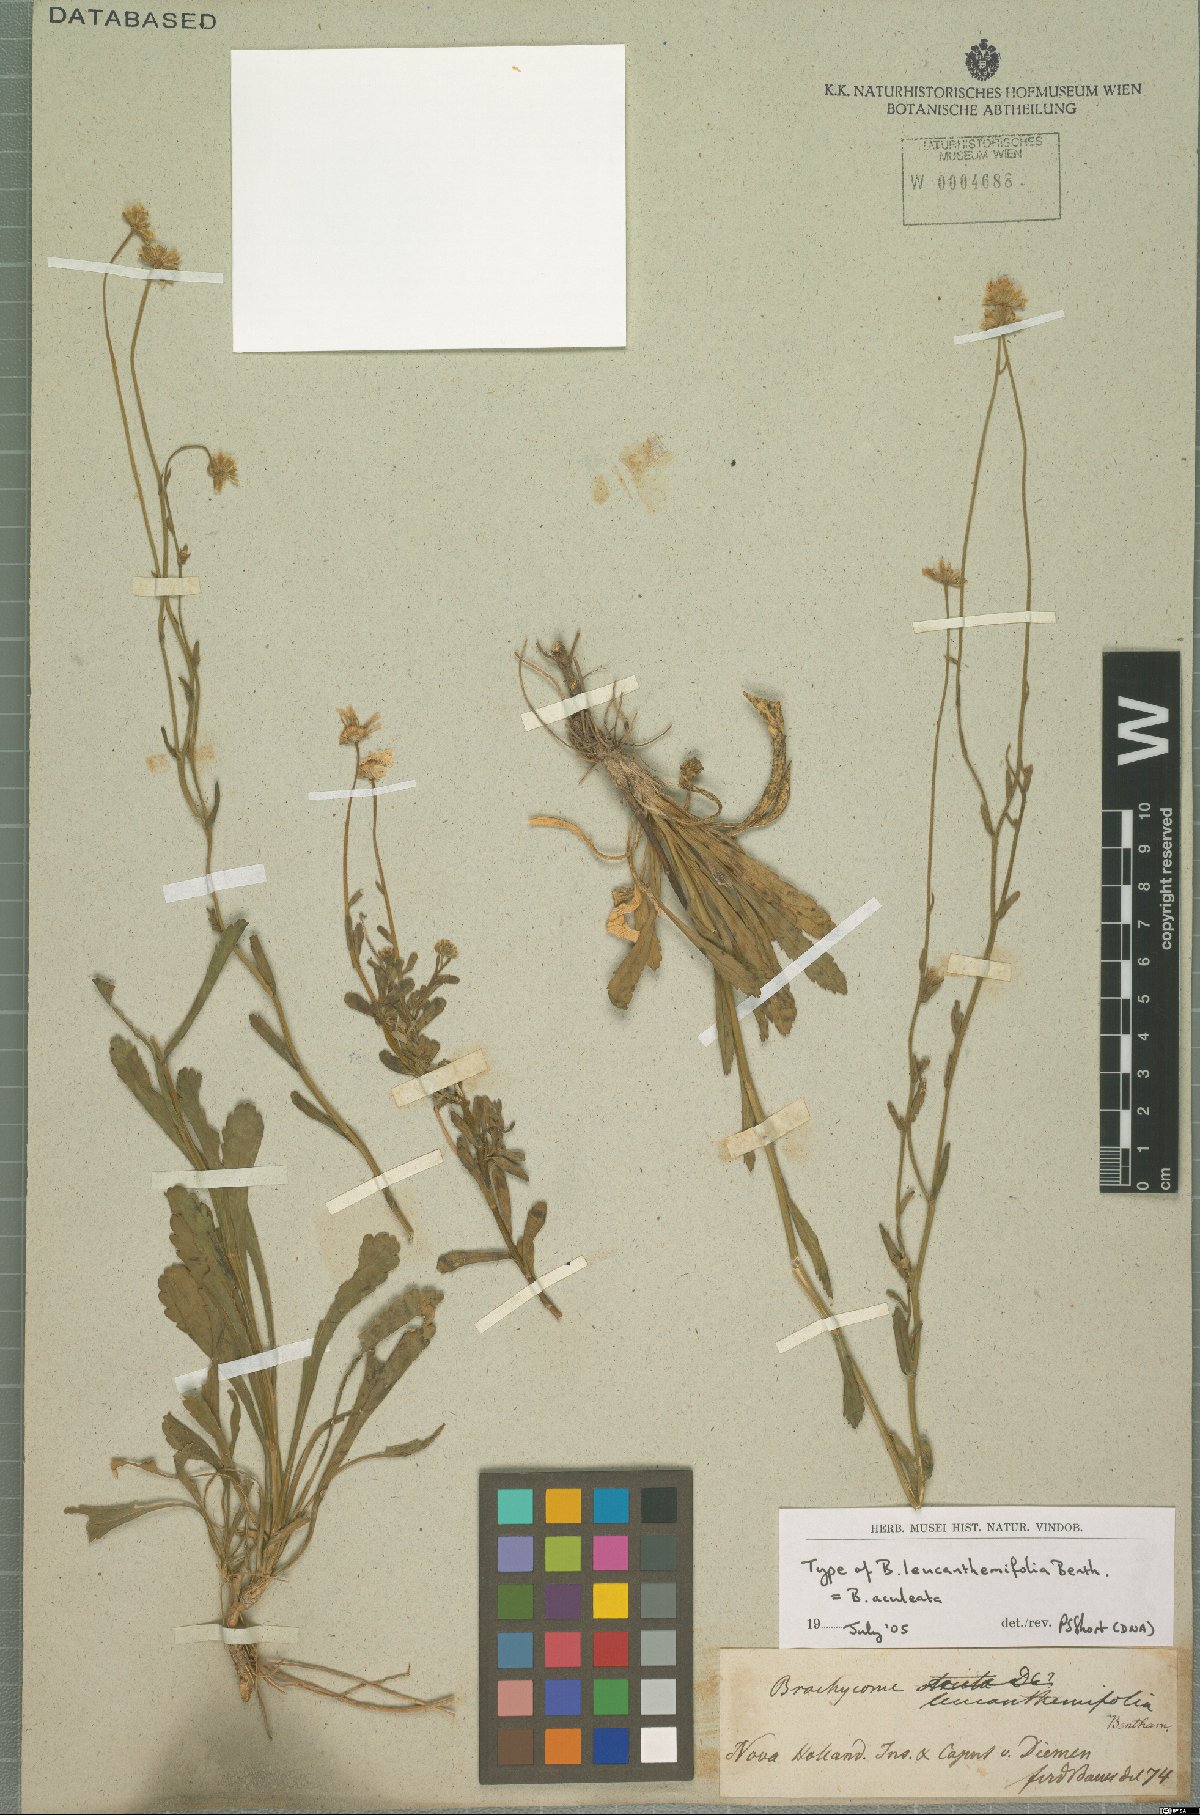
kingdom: Plantae
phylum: Tracheophyta
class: Magnoliopsida
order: Asterales
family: Asteraceae
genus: Brachyscome
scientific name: Brachyscome aculeata
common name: Hill daisy
